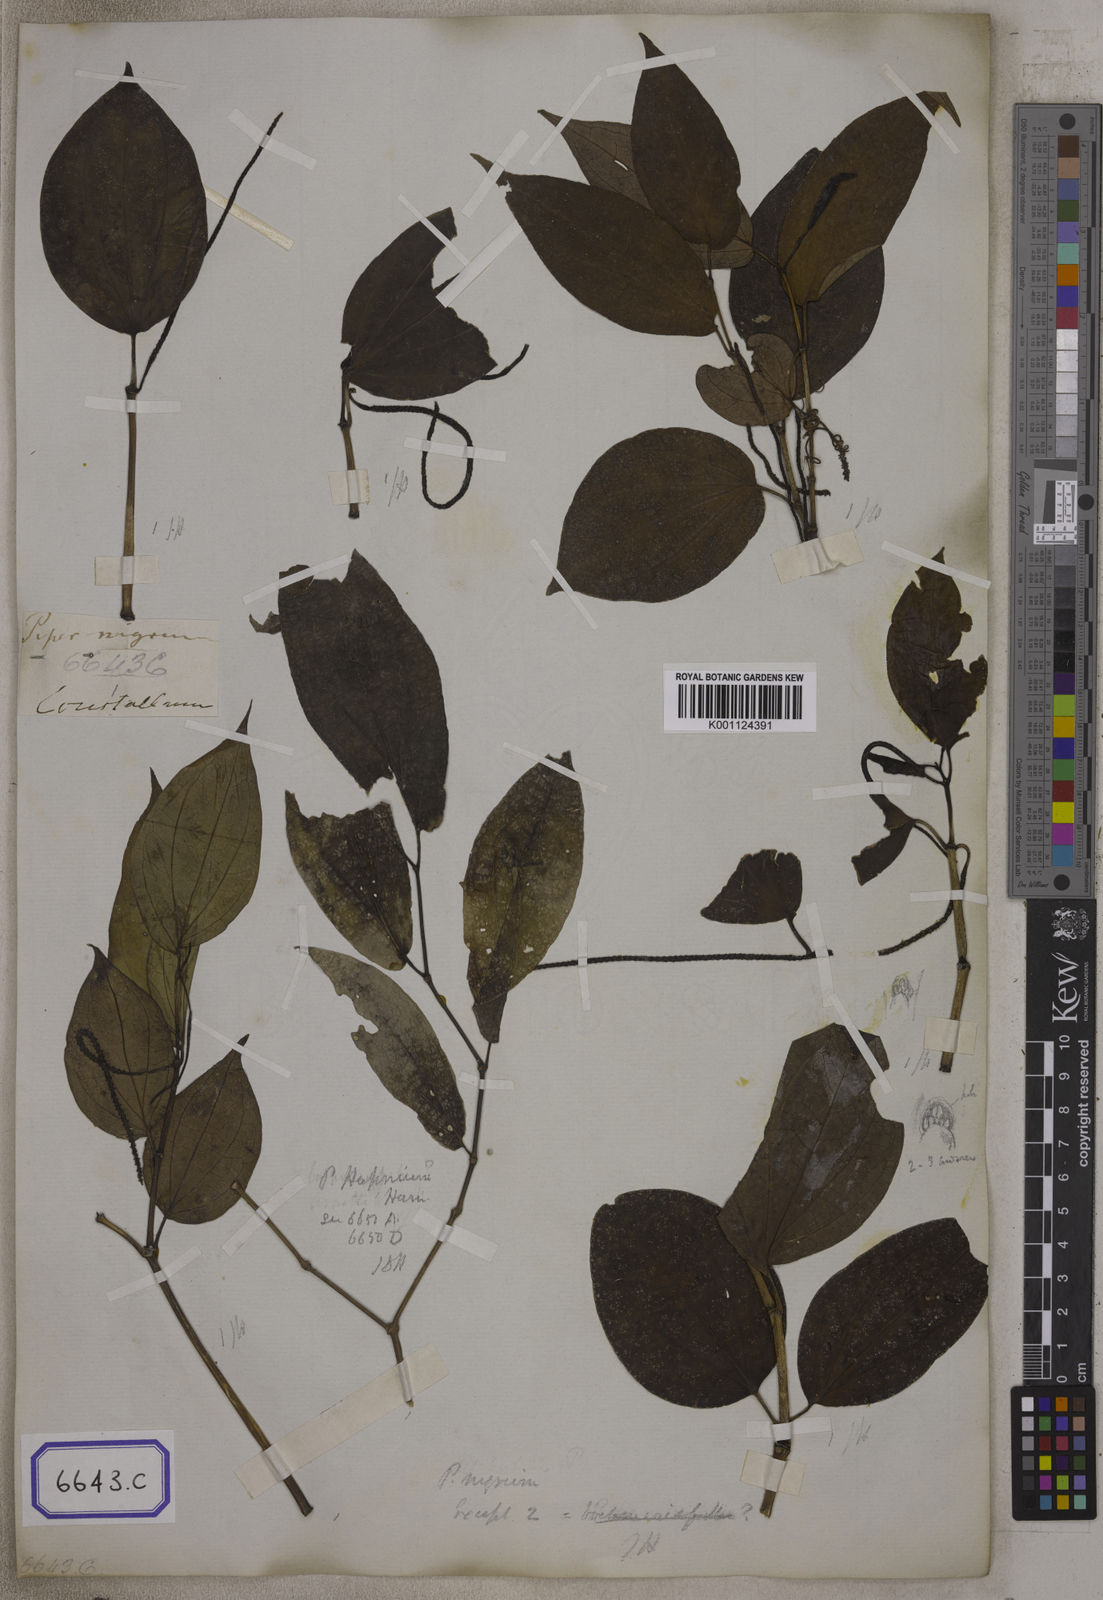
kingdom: Plantae
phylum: Tracheophyta
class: Magnoliopsida
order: Piperales
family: Piperaceae
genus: Piper
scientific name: Piper
